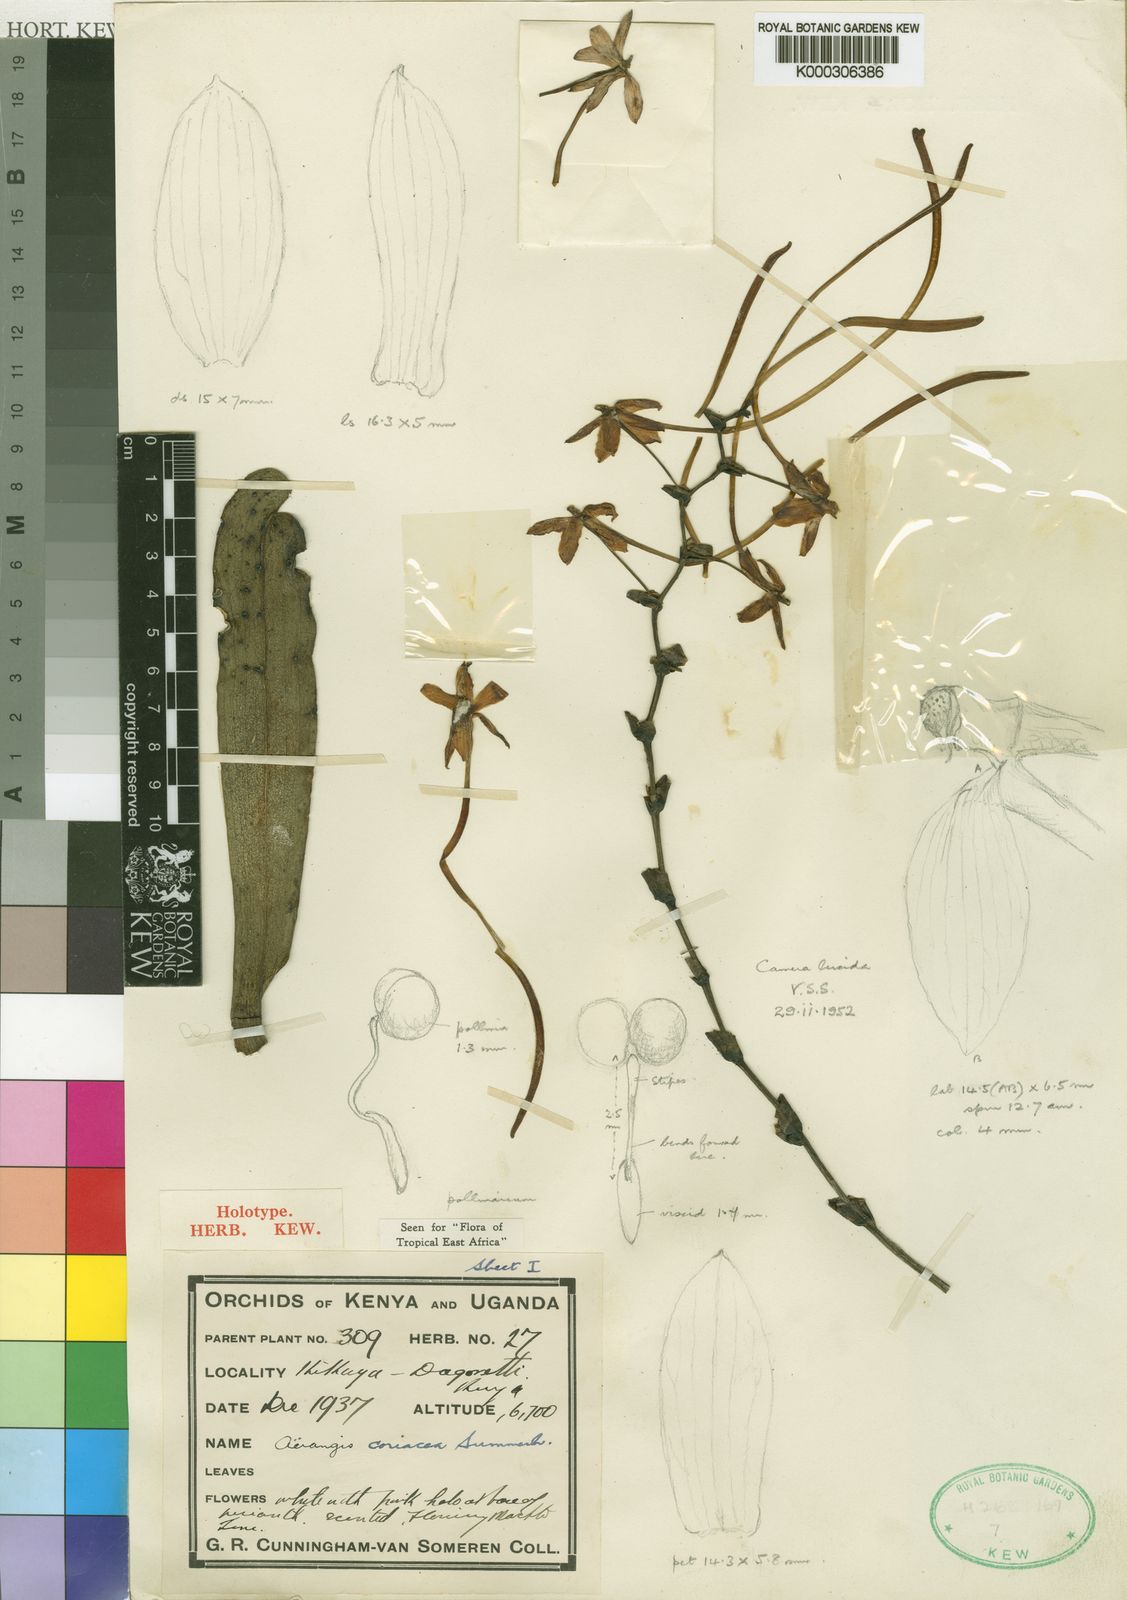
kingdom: Plantae
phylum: Tracheophyta
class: Liliopsida
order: Asparagales
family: Orchidaceae
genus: Aerangis
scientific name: Aerangis coriacea
